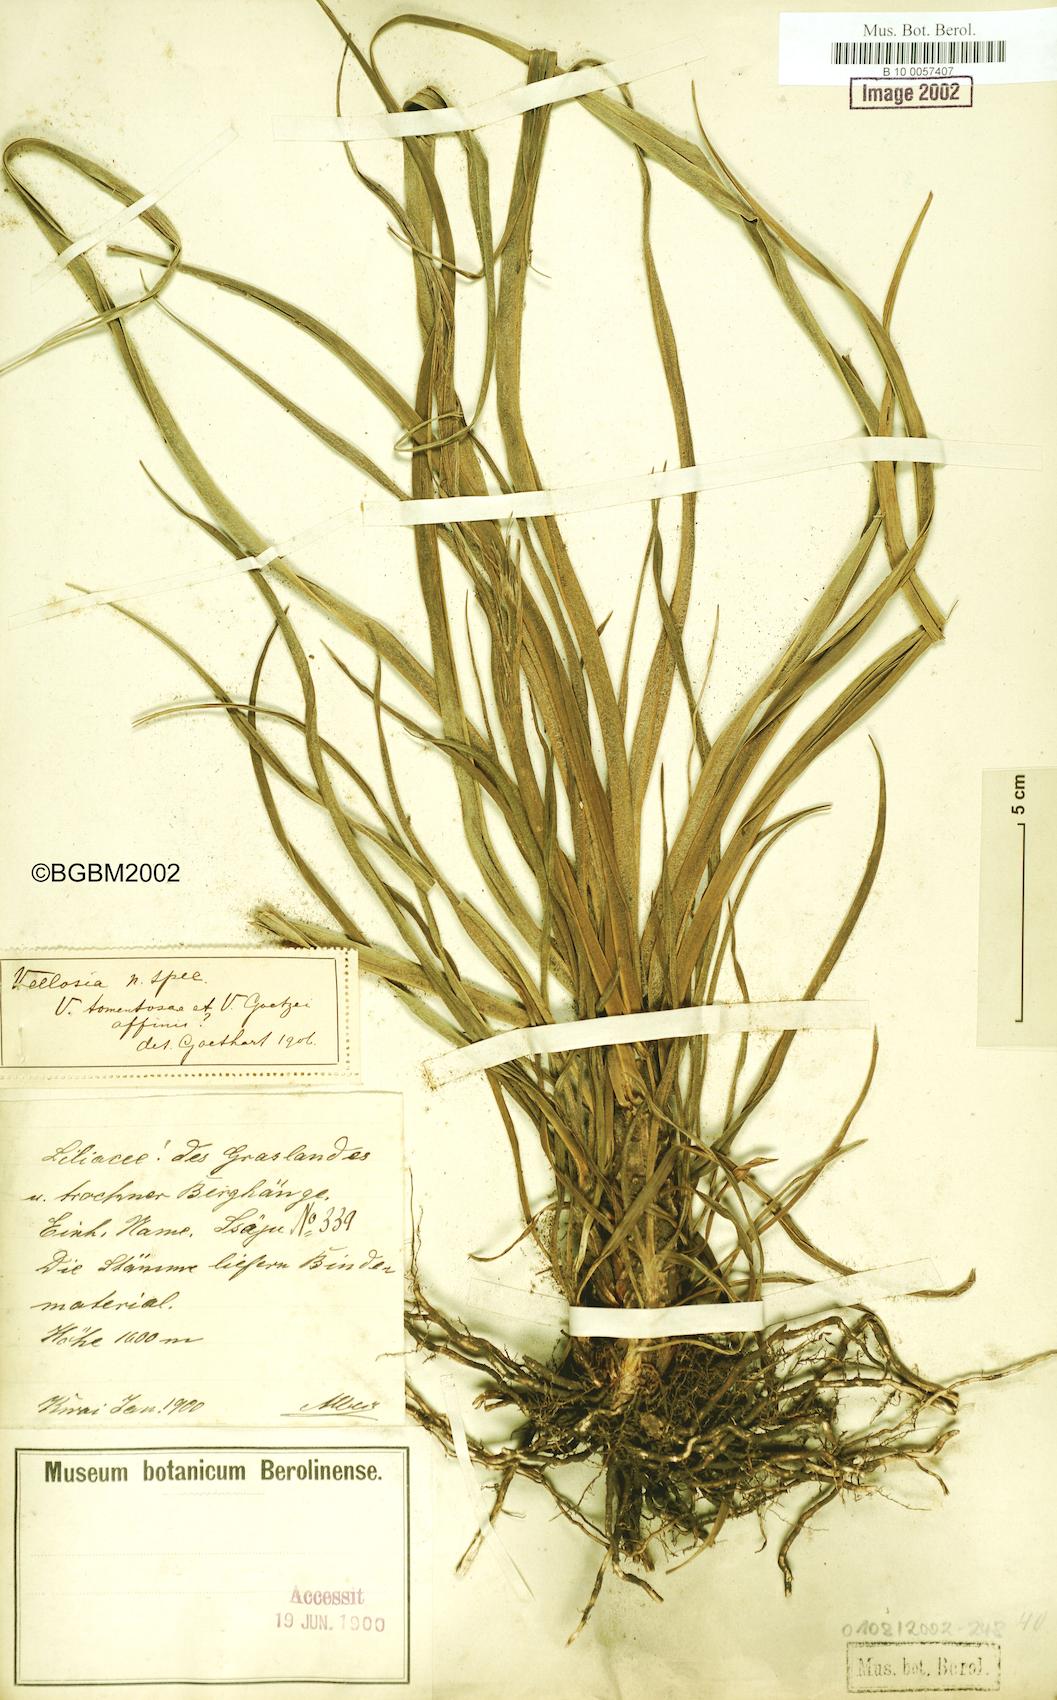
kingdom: Plantae
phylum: Tracheophyta
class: Liliopsida
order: Pandanales
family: Velloziaceae
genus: Xerophyta
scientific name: Xerophyta
